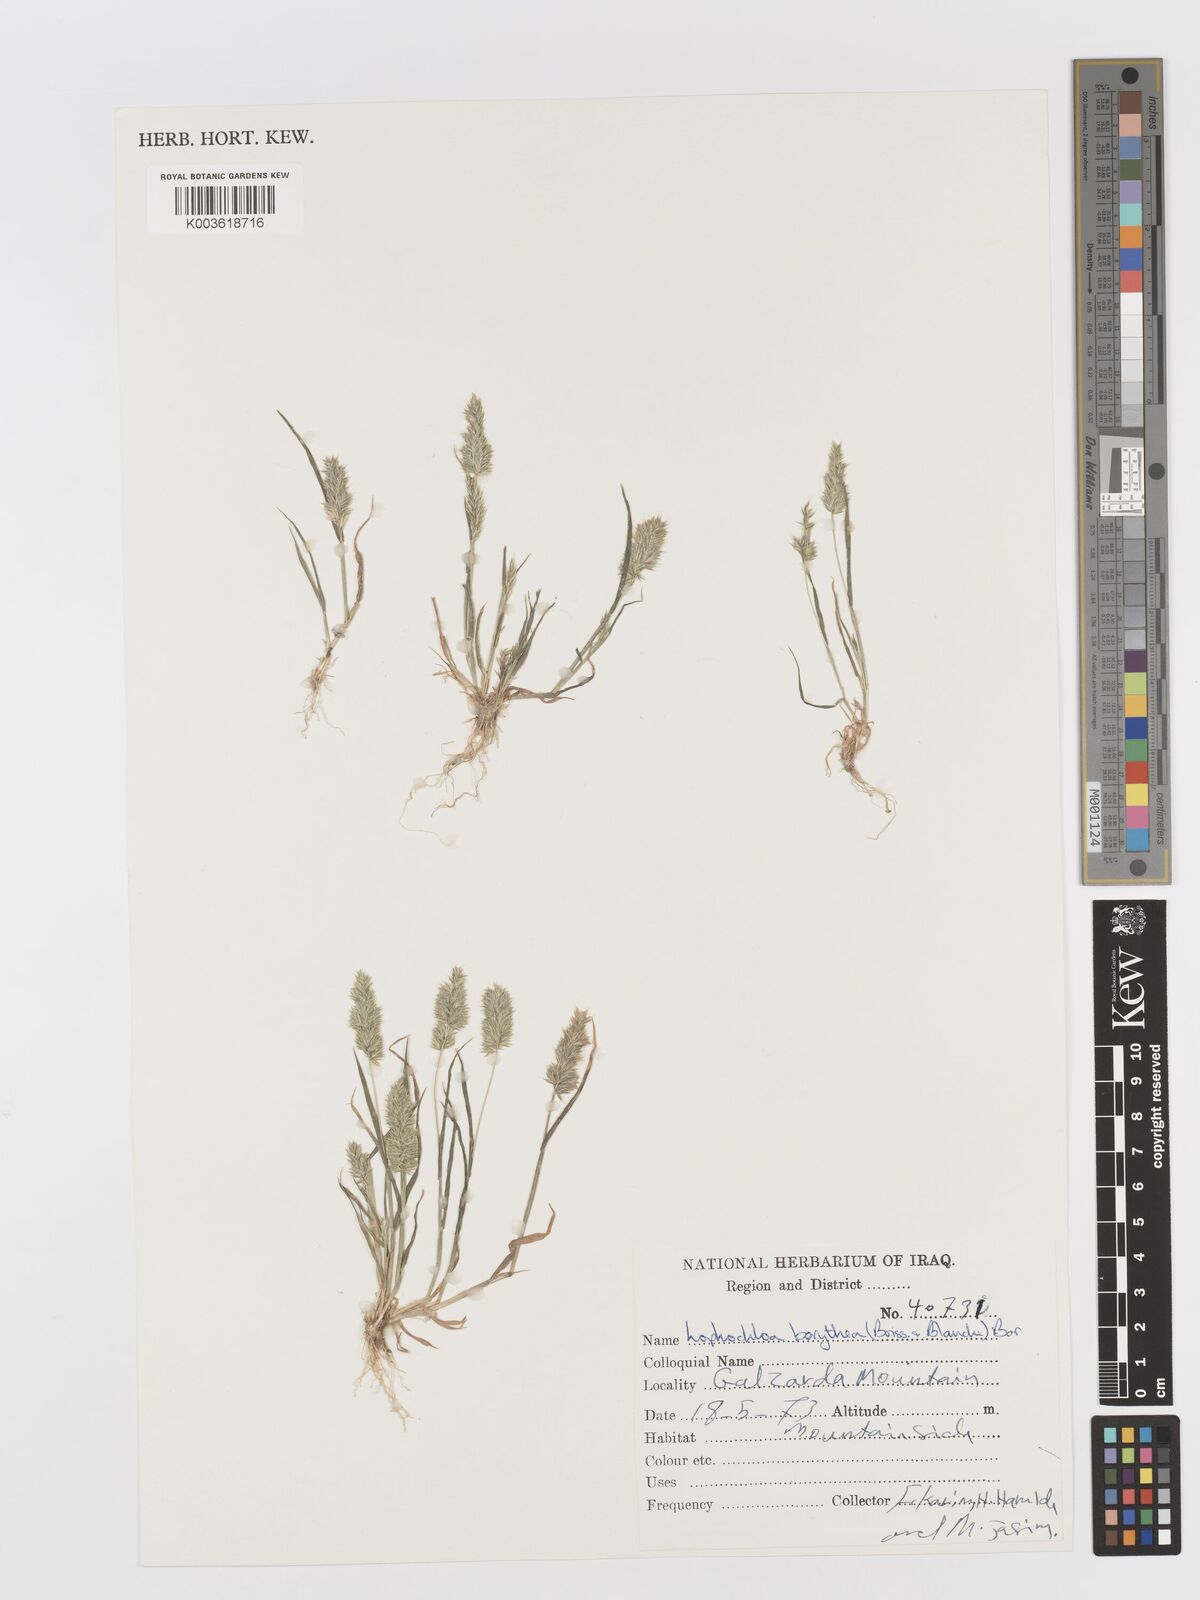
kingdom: Plantae
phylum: Tracheophyta
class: Liliopsida
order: Poales
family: Poaceae
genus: Rostraria
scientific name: Rostraria smyrnaea
